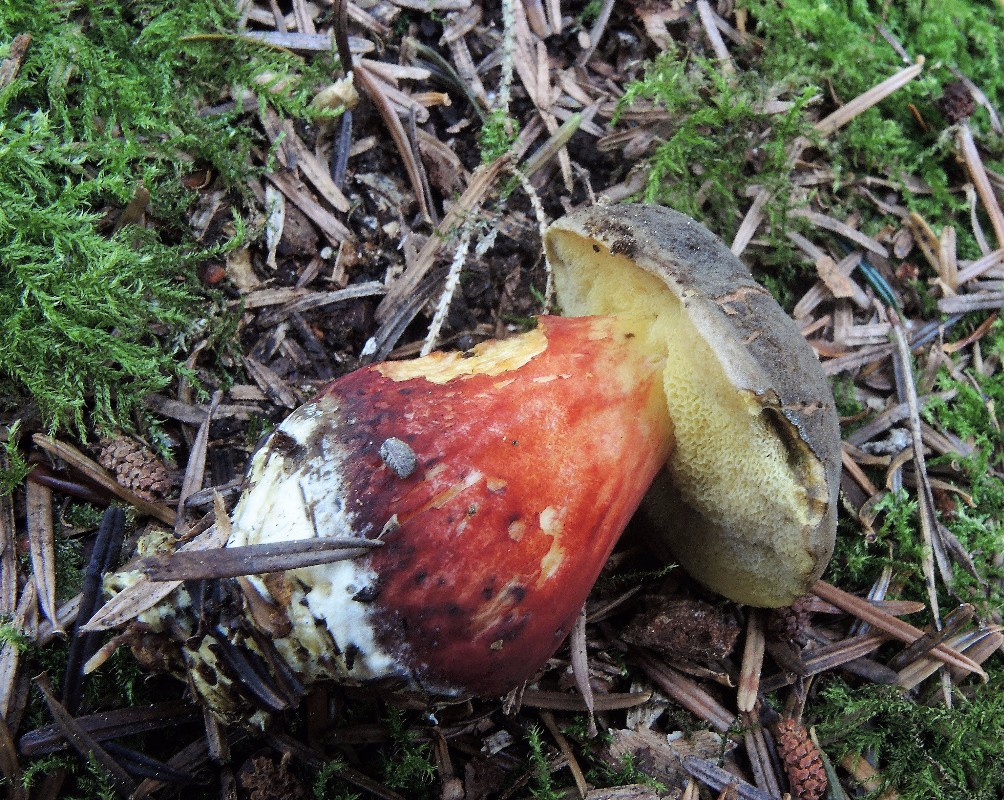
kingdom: Fungi
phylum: Basidiomycota
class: Agaricomycetes
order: Boletales
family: Boletaceae
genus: Xerocomellus
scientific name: Xerocomellus chrysenteron
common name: rødsprukken rørhat
